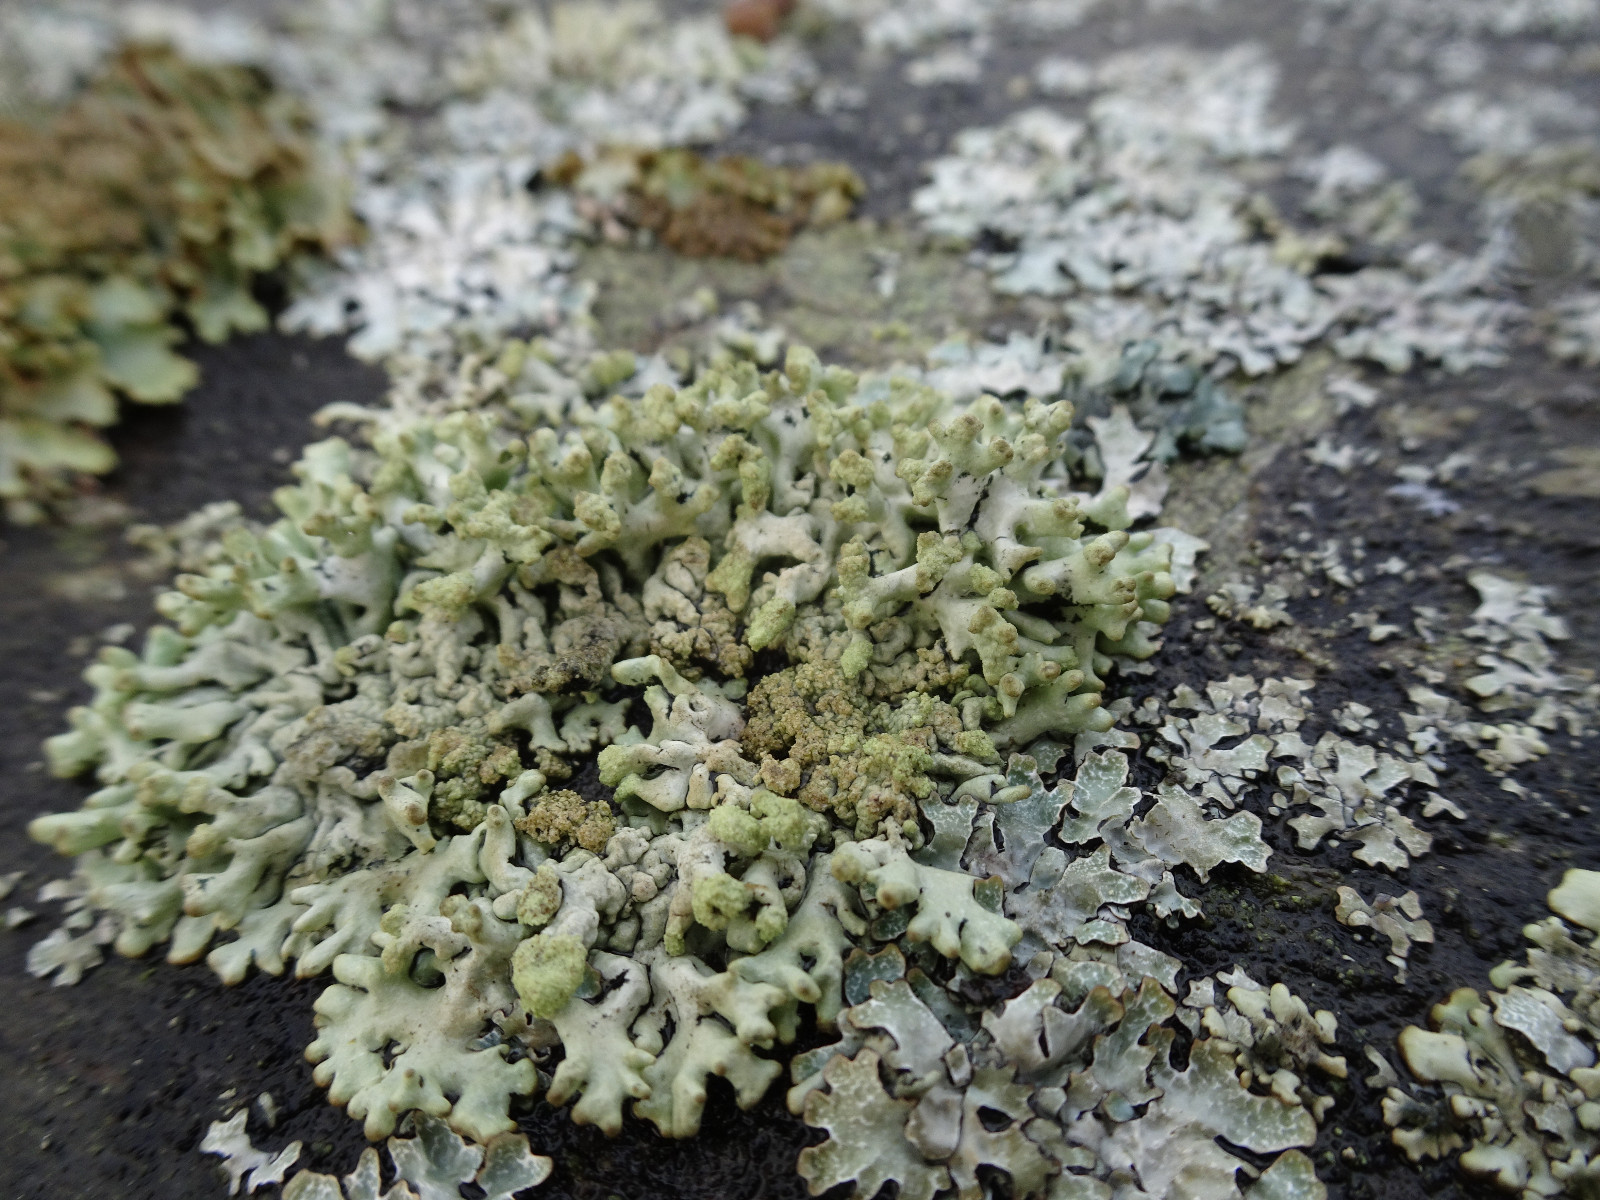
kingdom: Fungi
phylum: Ascomycota
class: Lecanoromycetes
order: Lecanorales
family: Parmeliaceae
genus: Hypogymnia
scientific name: Hypogymnia tubulosa
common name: finger-kvistlav
